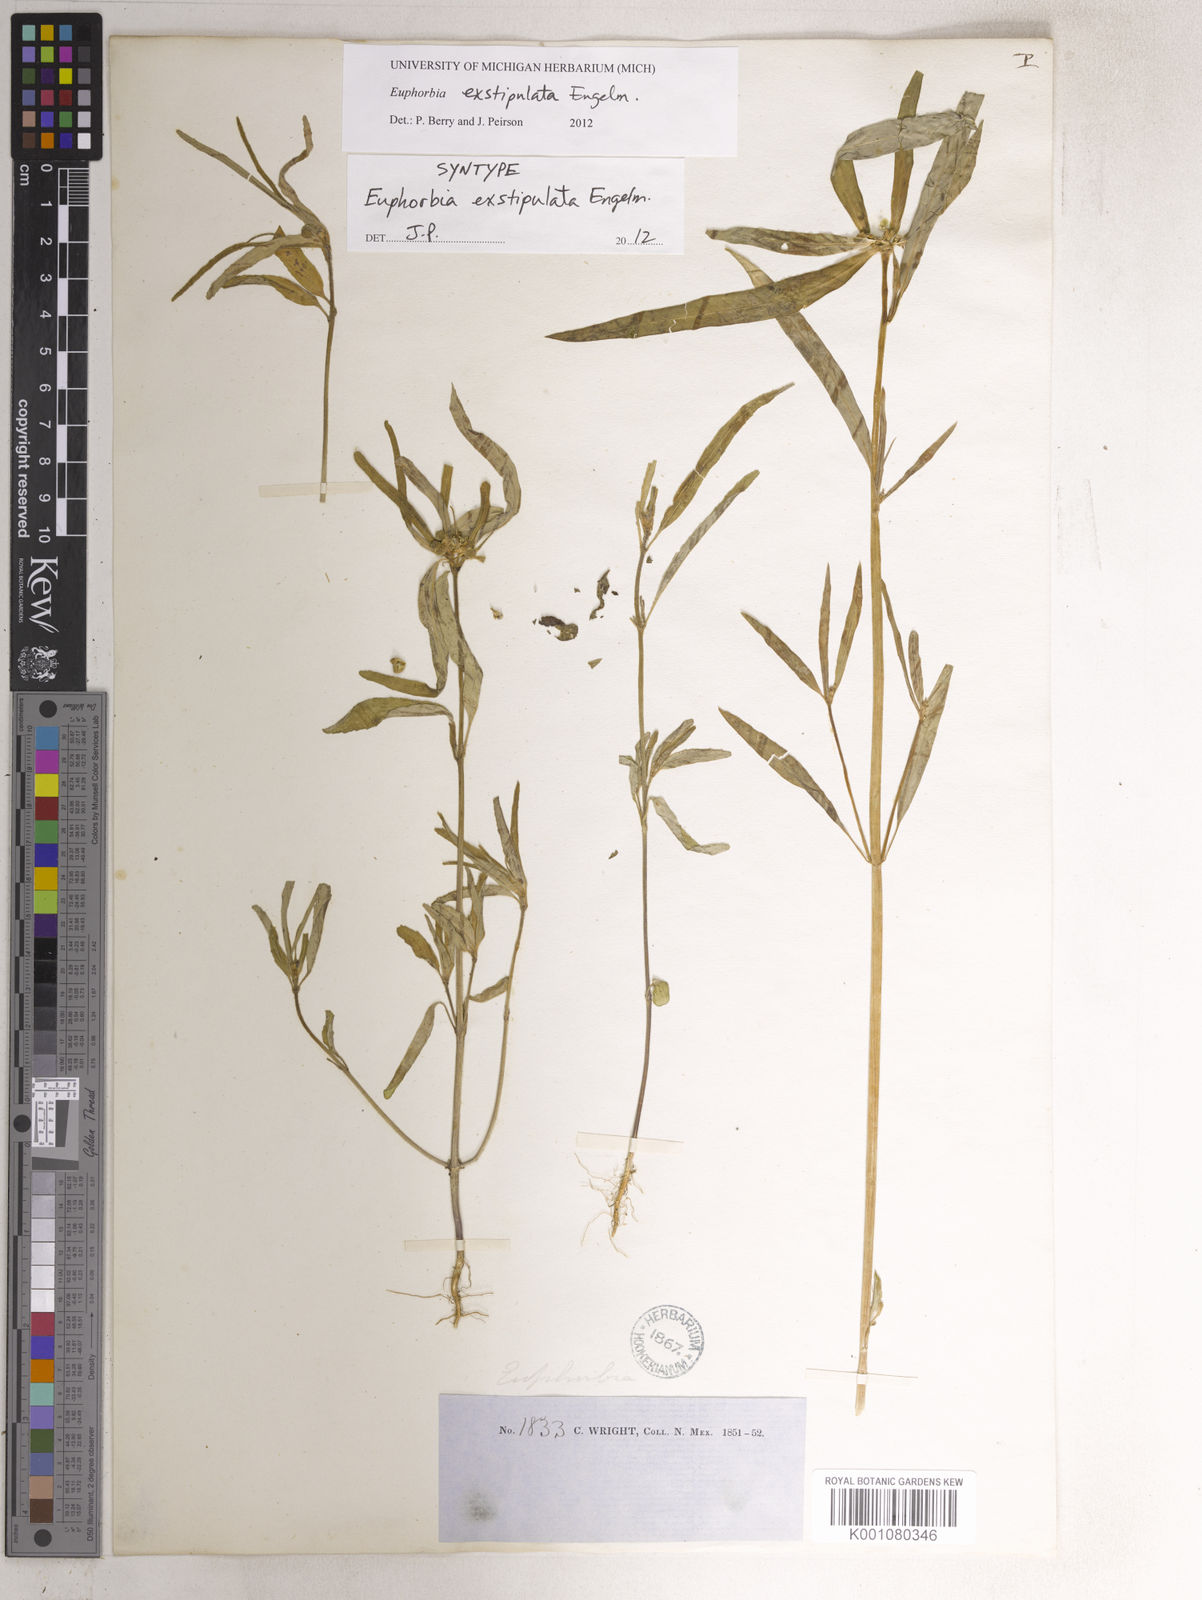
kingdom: Plantae
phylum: Tracheophyta
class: Magnoliopsida
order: Malpighiales
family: Euphorbiaceae
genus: Euphorbia
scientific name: Euphorbia exstipulata
